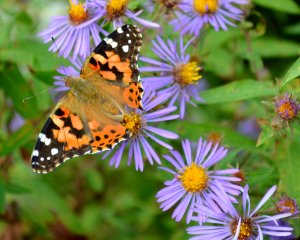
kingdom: Animalia
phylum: Arthropoda
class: Insecta
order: Lepidoptera
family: Nymphalidae
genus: Vanessa
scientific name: Vanessa cardui
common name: Painted Lady
